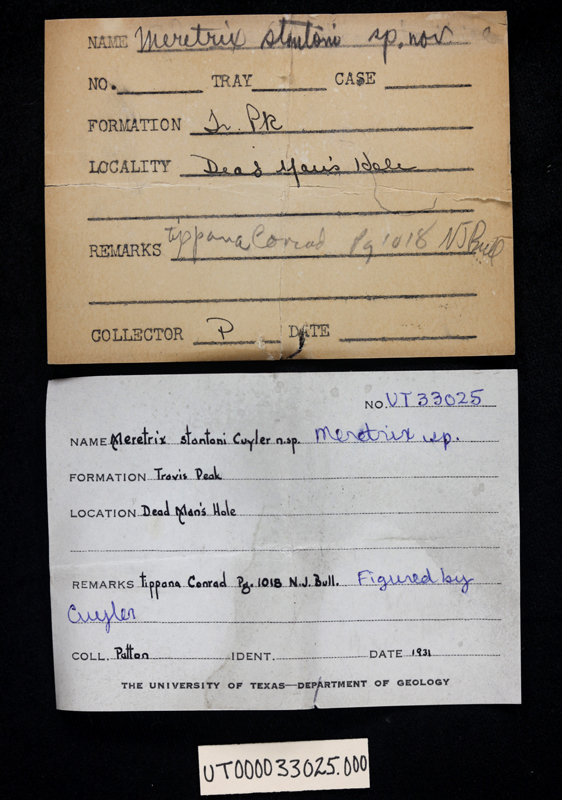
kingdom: Animalia
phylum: Mollusca
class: Bivalvia
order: Venerida
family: Veneridae
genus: Meretrix
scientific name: Meretrix
